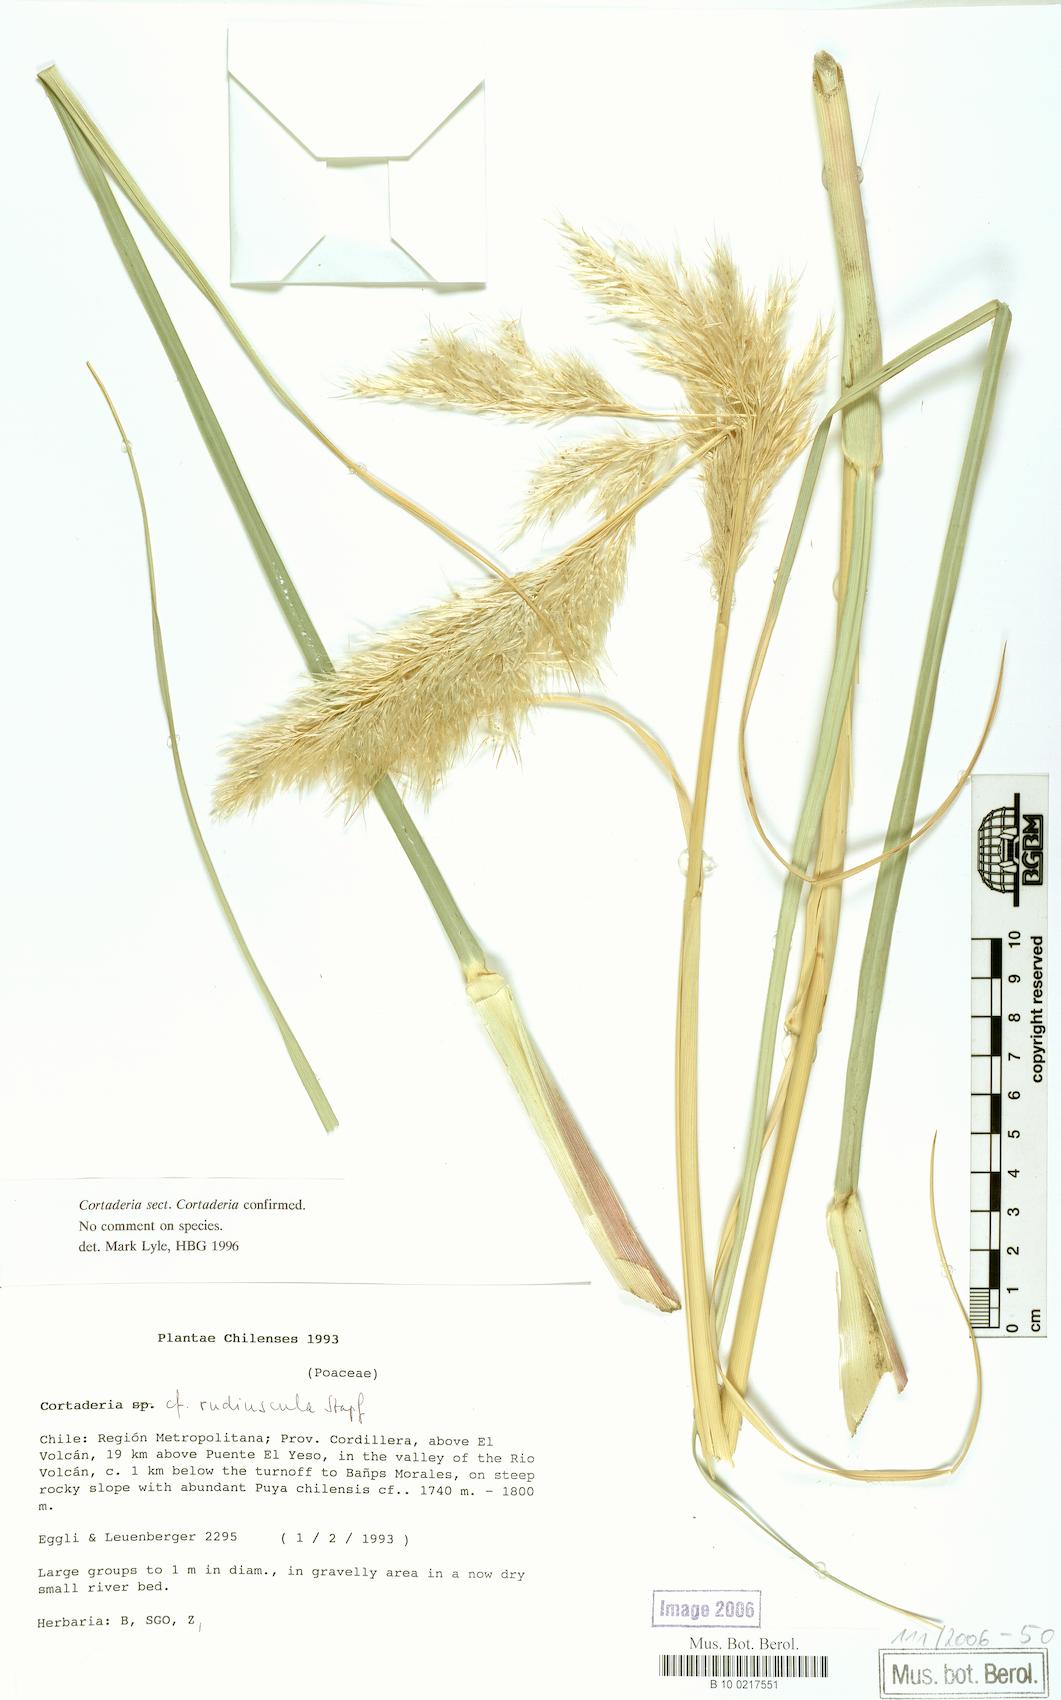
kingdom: Plantae
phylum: Tracheophyta
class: Liliopsida
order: Poales
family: Poaceae
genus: Cortaderia
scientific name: Cortaderia speciosa
